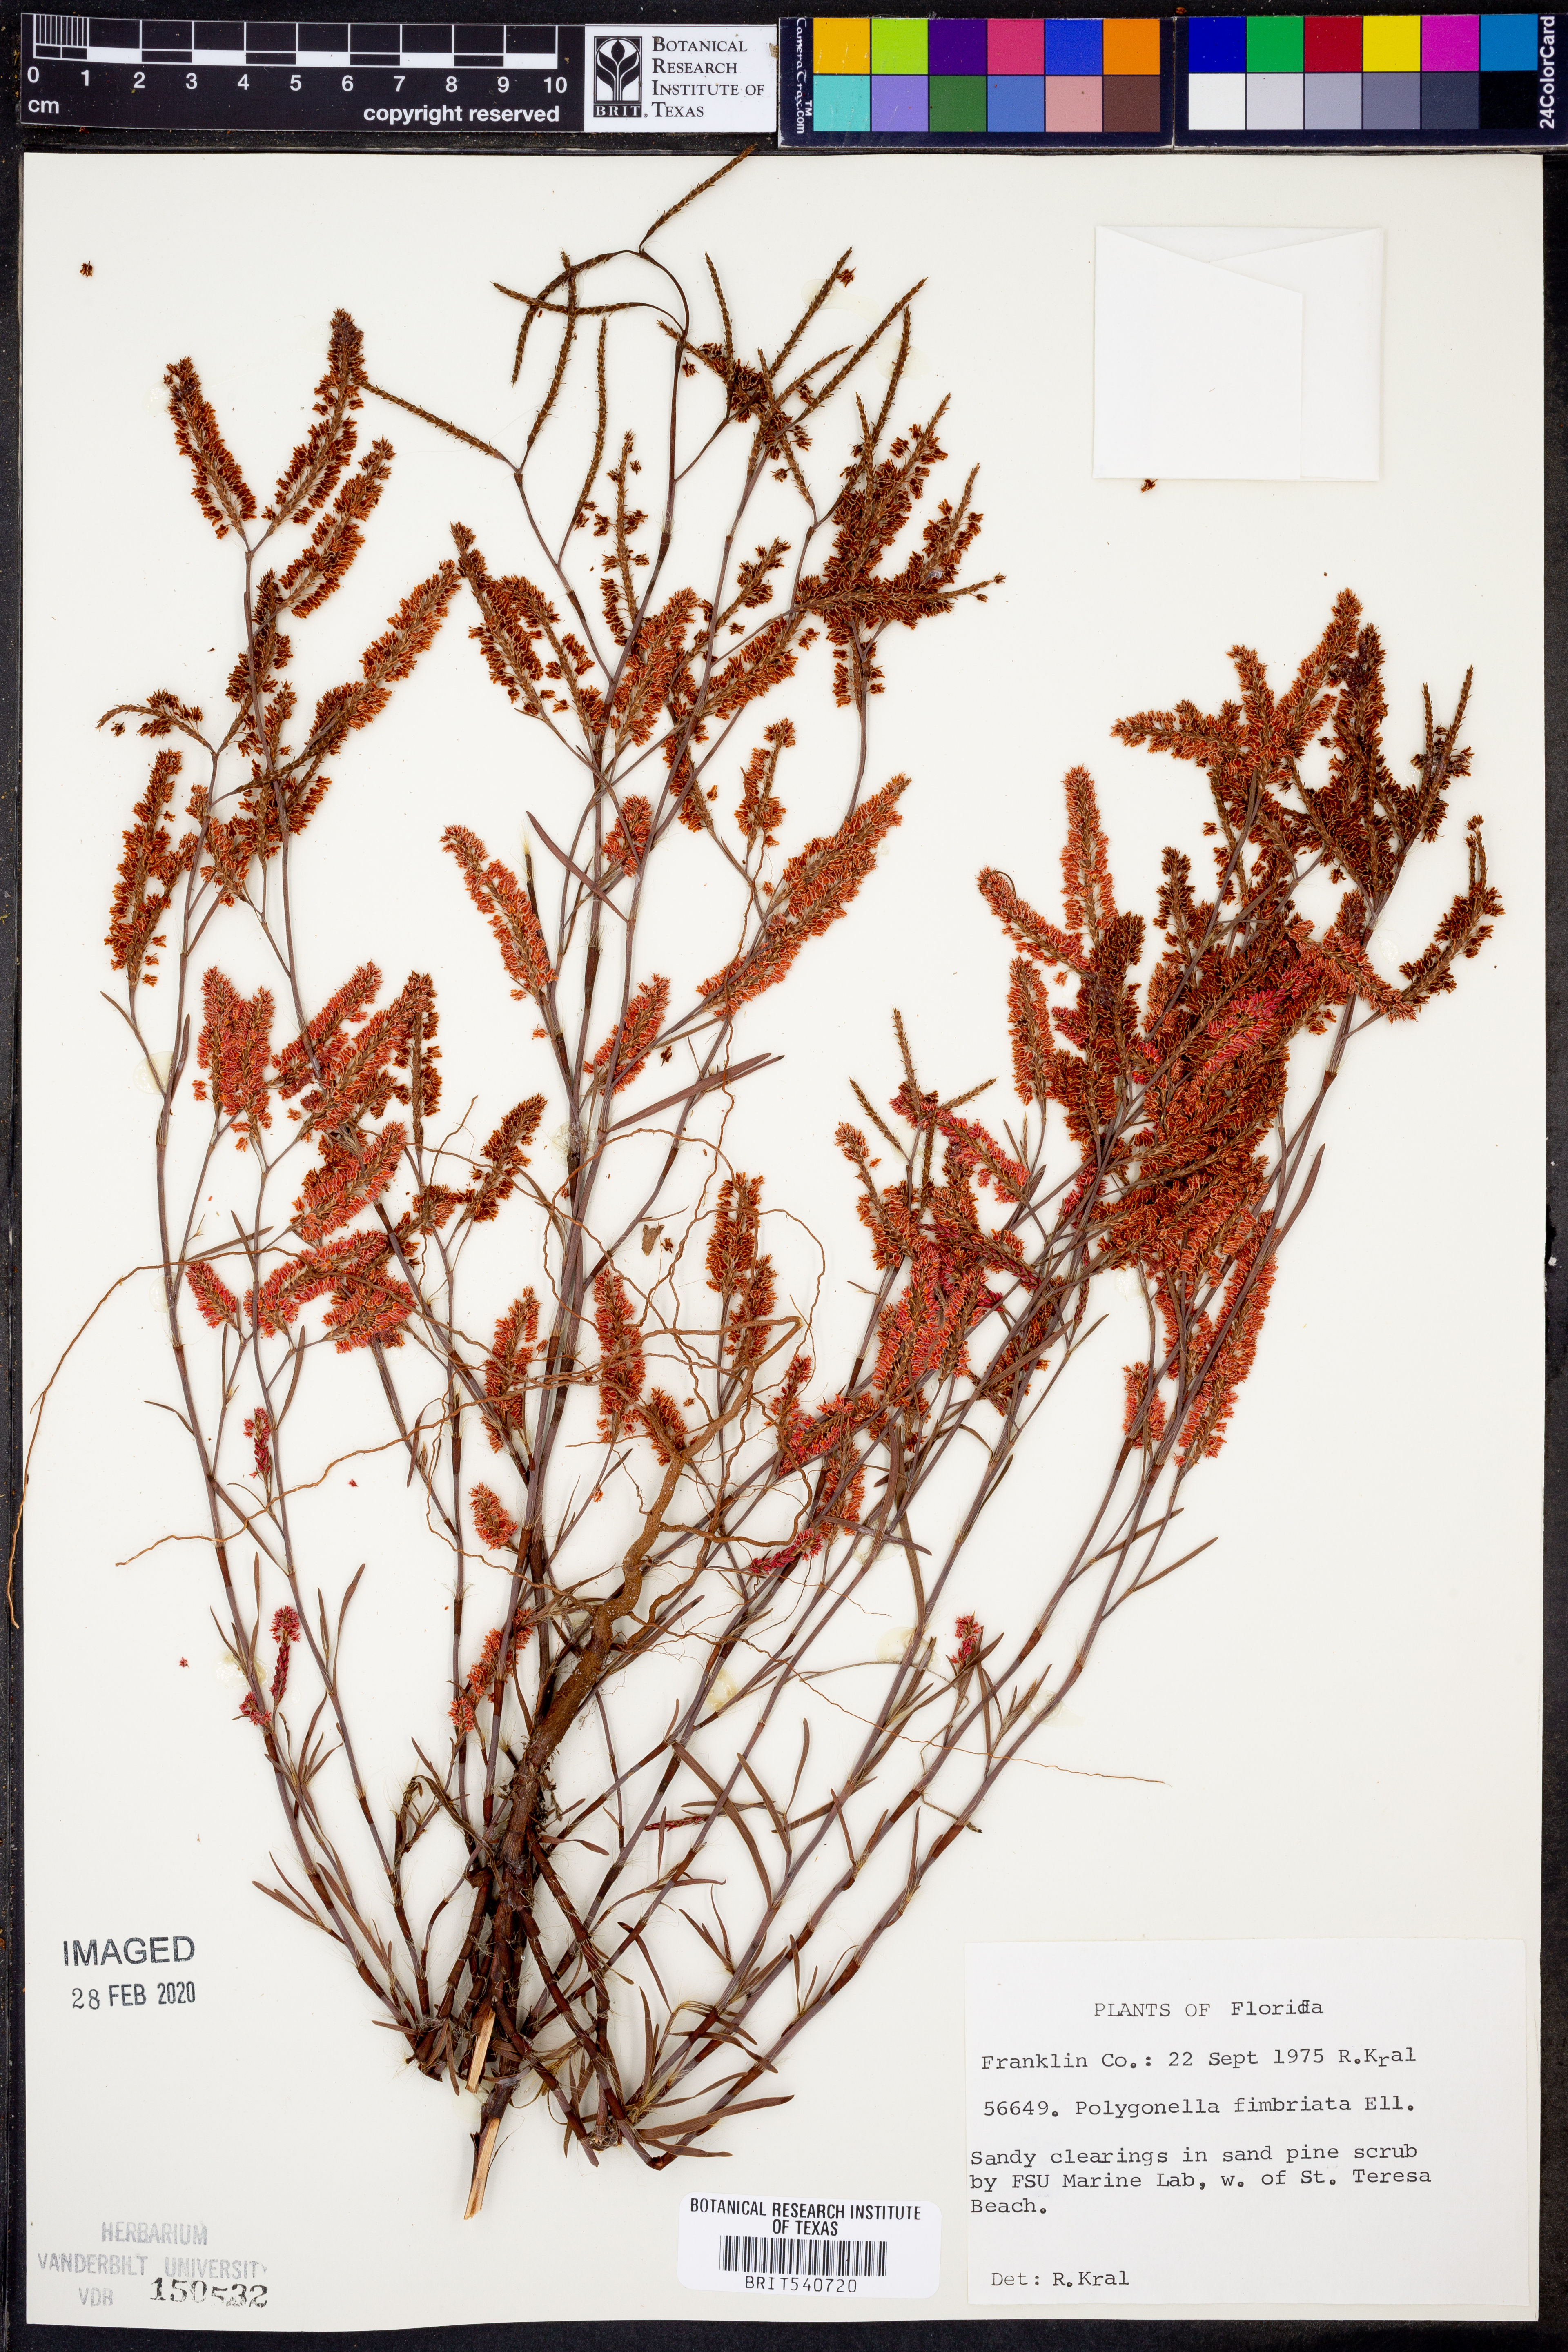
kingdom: Plantae
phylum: Tracheophyta
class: Magnoliopsida
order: Caryophyllales
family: Polygonaceae
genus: Polygonella
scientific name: Polygonella fimbriata
